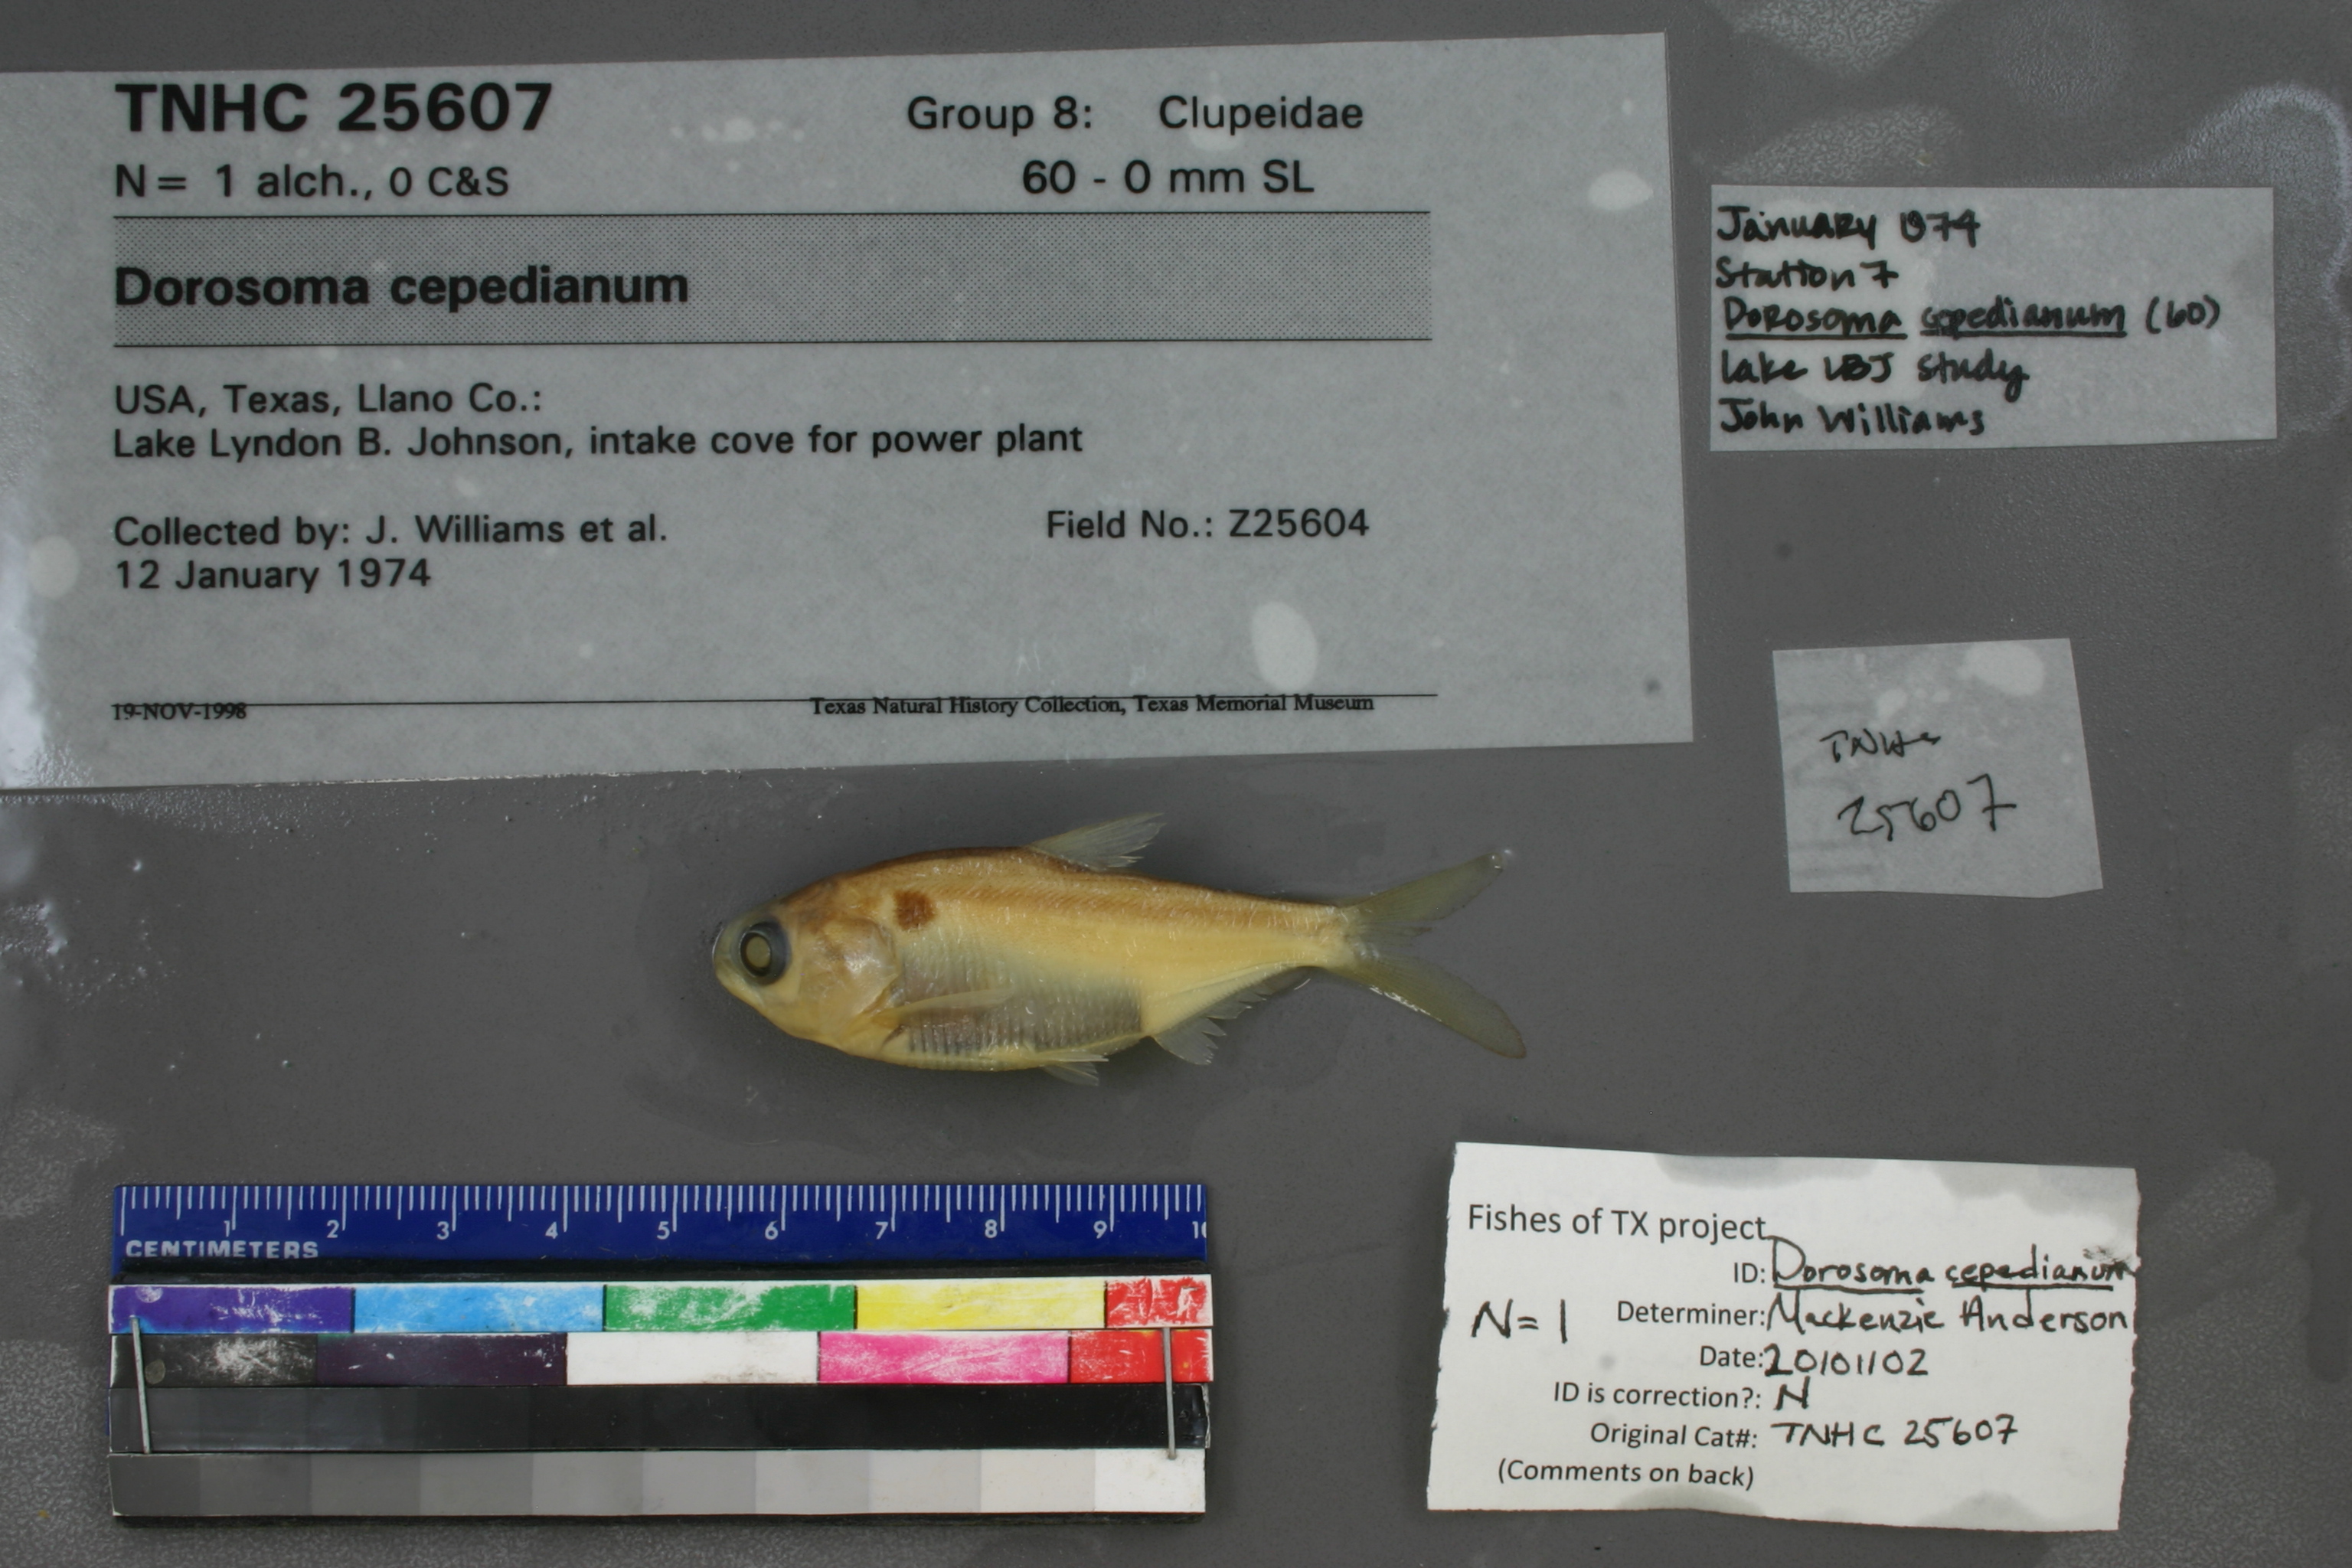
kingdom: Animalia
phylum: Chordata
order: Clupeiformes
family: Clupeidae
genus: Dorosoma
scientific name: Dorosoma cepedianum
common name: Gizzard shad
